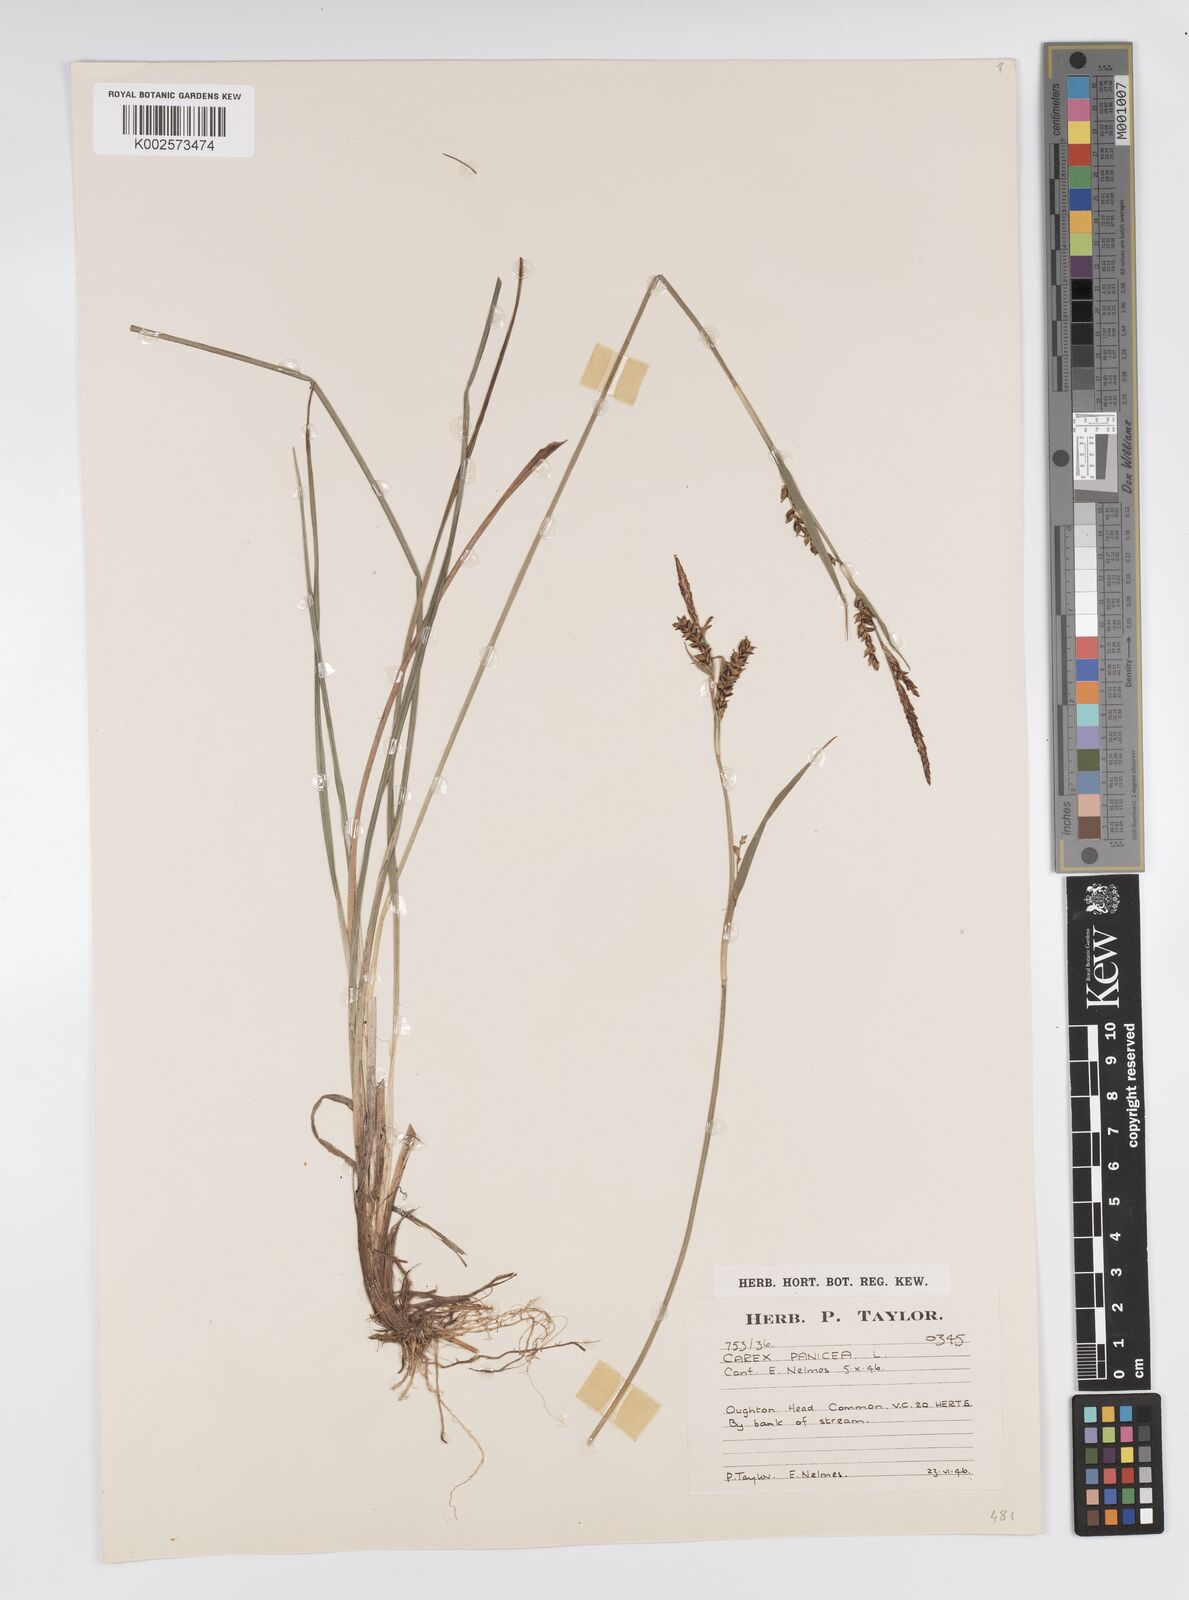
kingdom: Plantae
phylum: Tracheophyta
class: Liliopsida
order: Poales
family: Cyperaceae
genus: Carex
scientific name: Carex panicea
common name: Carnation sedge
